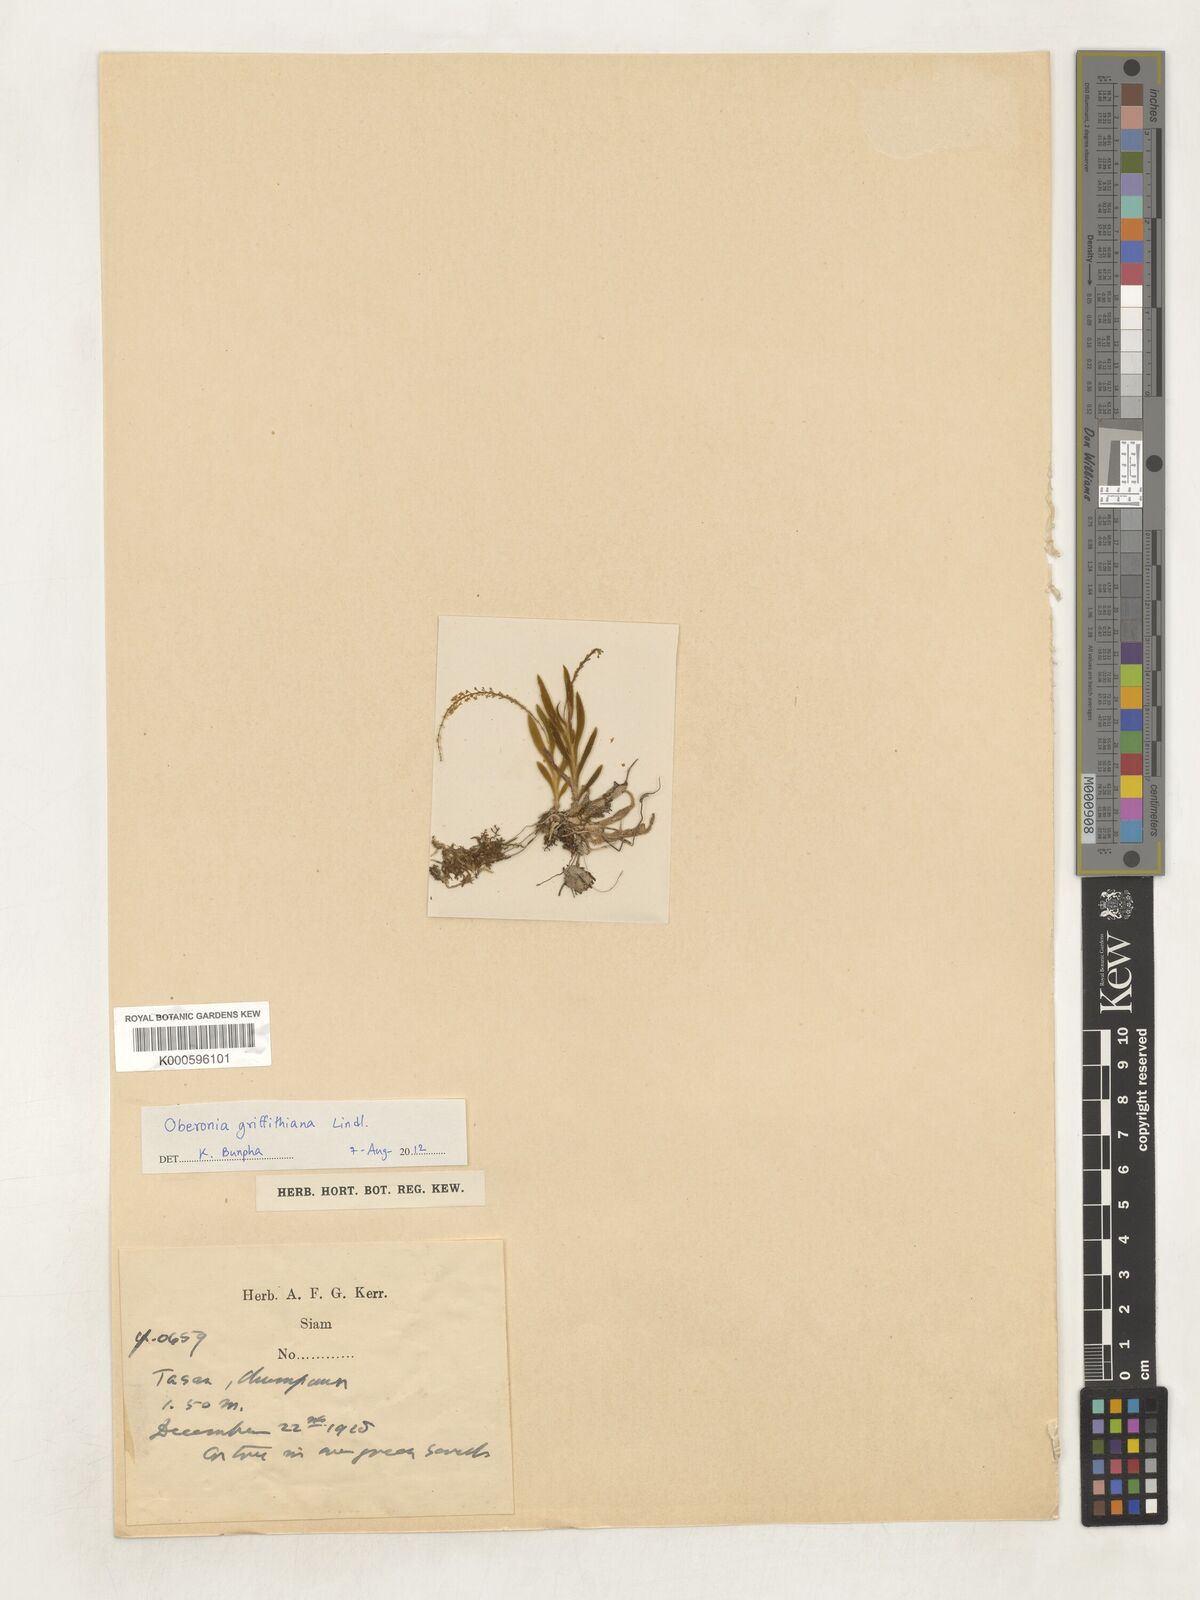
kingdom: Plantae
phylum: Tracheophyta
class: Liliopsida
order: Asparagales
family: Orchidaceae
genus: Oberonia
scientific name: Oberonia insectifera
